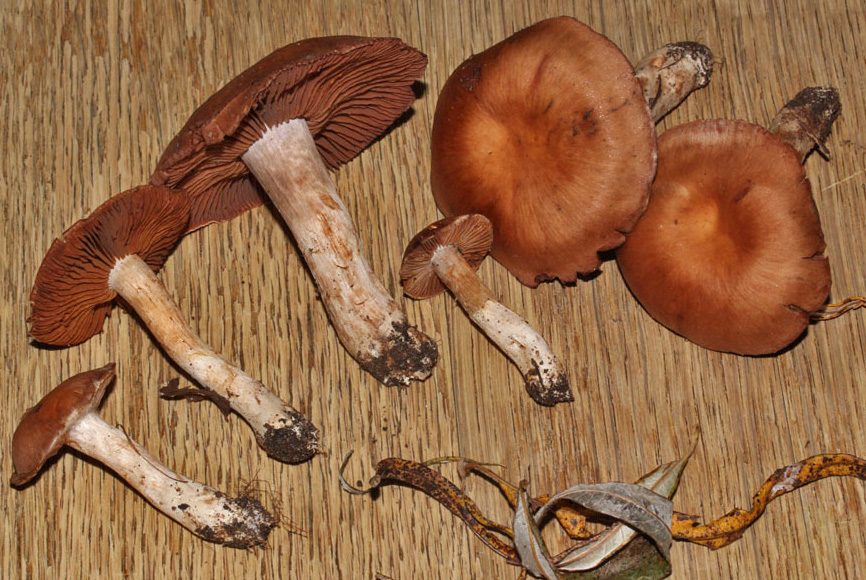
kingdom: Fungi
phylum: Basidiomycota
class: Agaricomycetes
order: Agaricales
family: Cortinariaceae
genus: Cortinarius
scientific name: Cortinarius saturninus
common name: brunviolet slørhat
